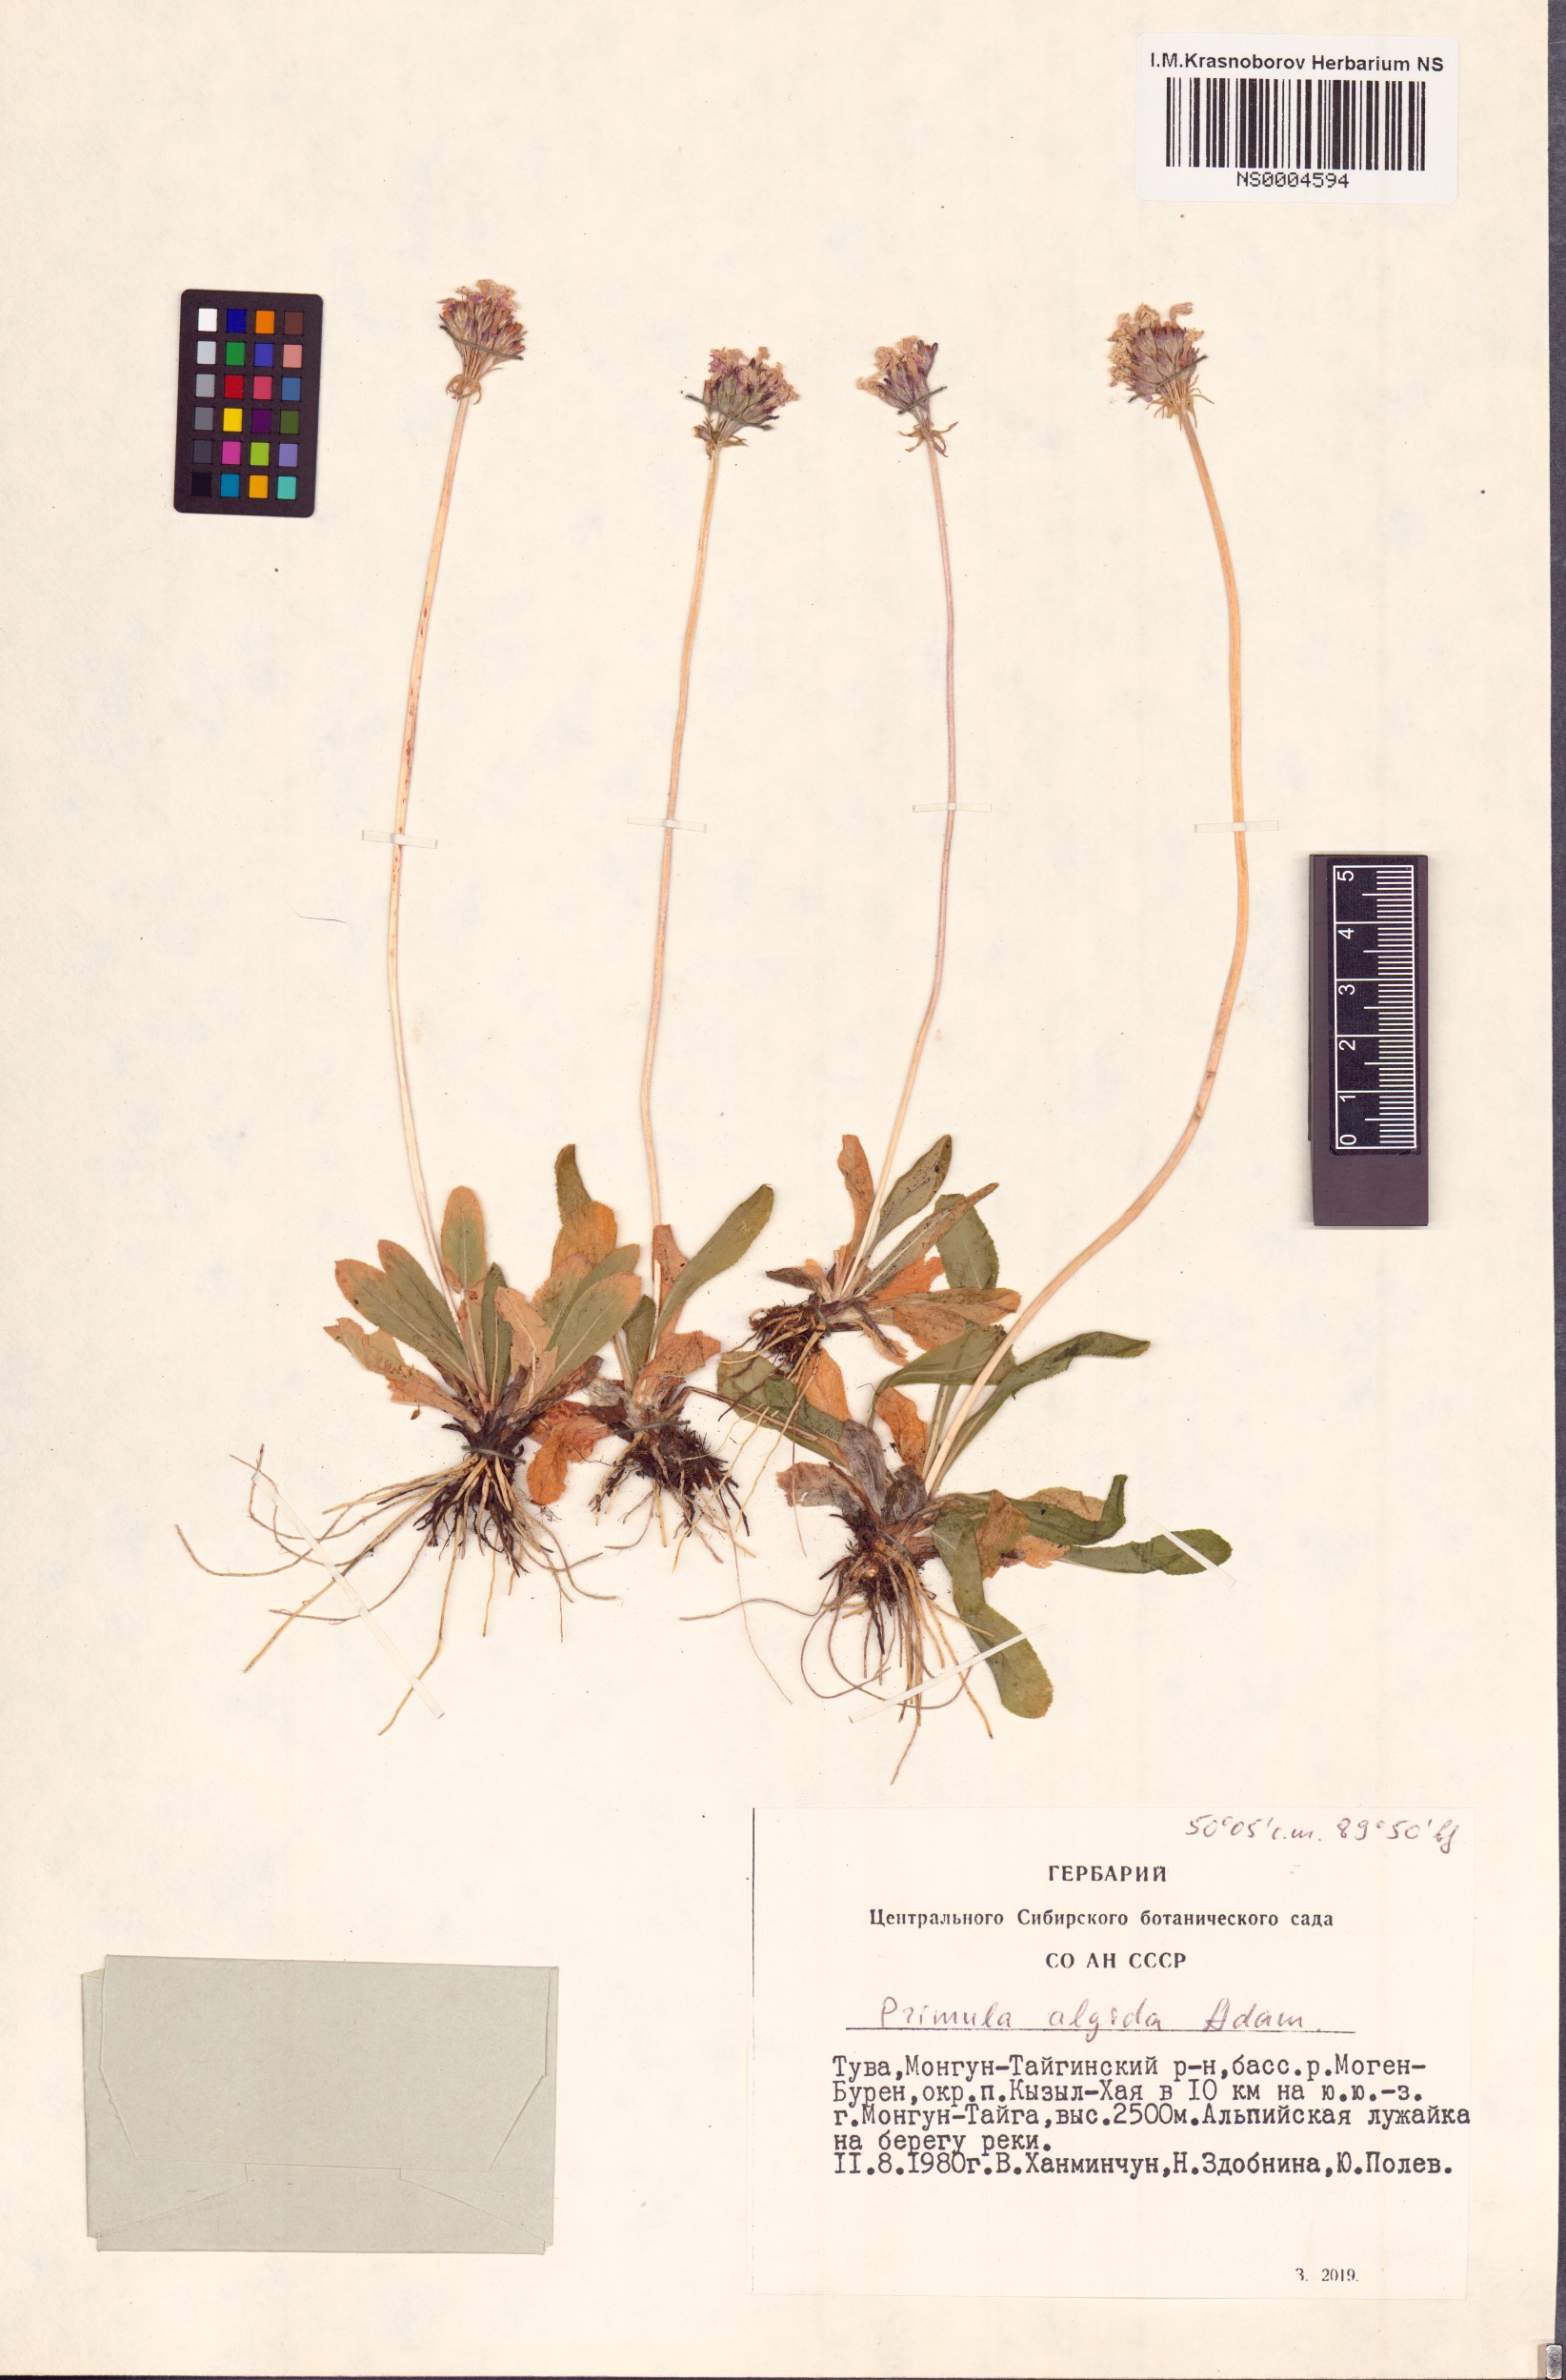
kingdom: Plantae
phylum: Tracheophyta
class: Magnoliopsida
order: Ericales
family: Primulaceae
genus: Primula
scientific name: Primula algida
